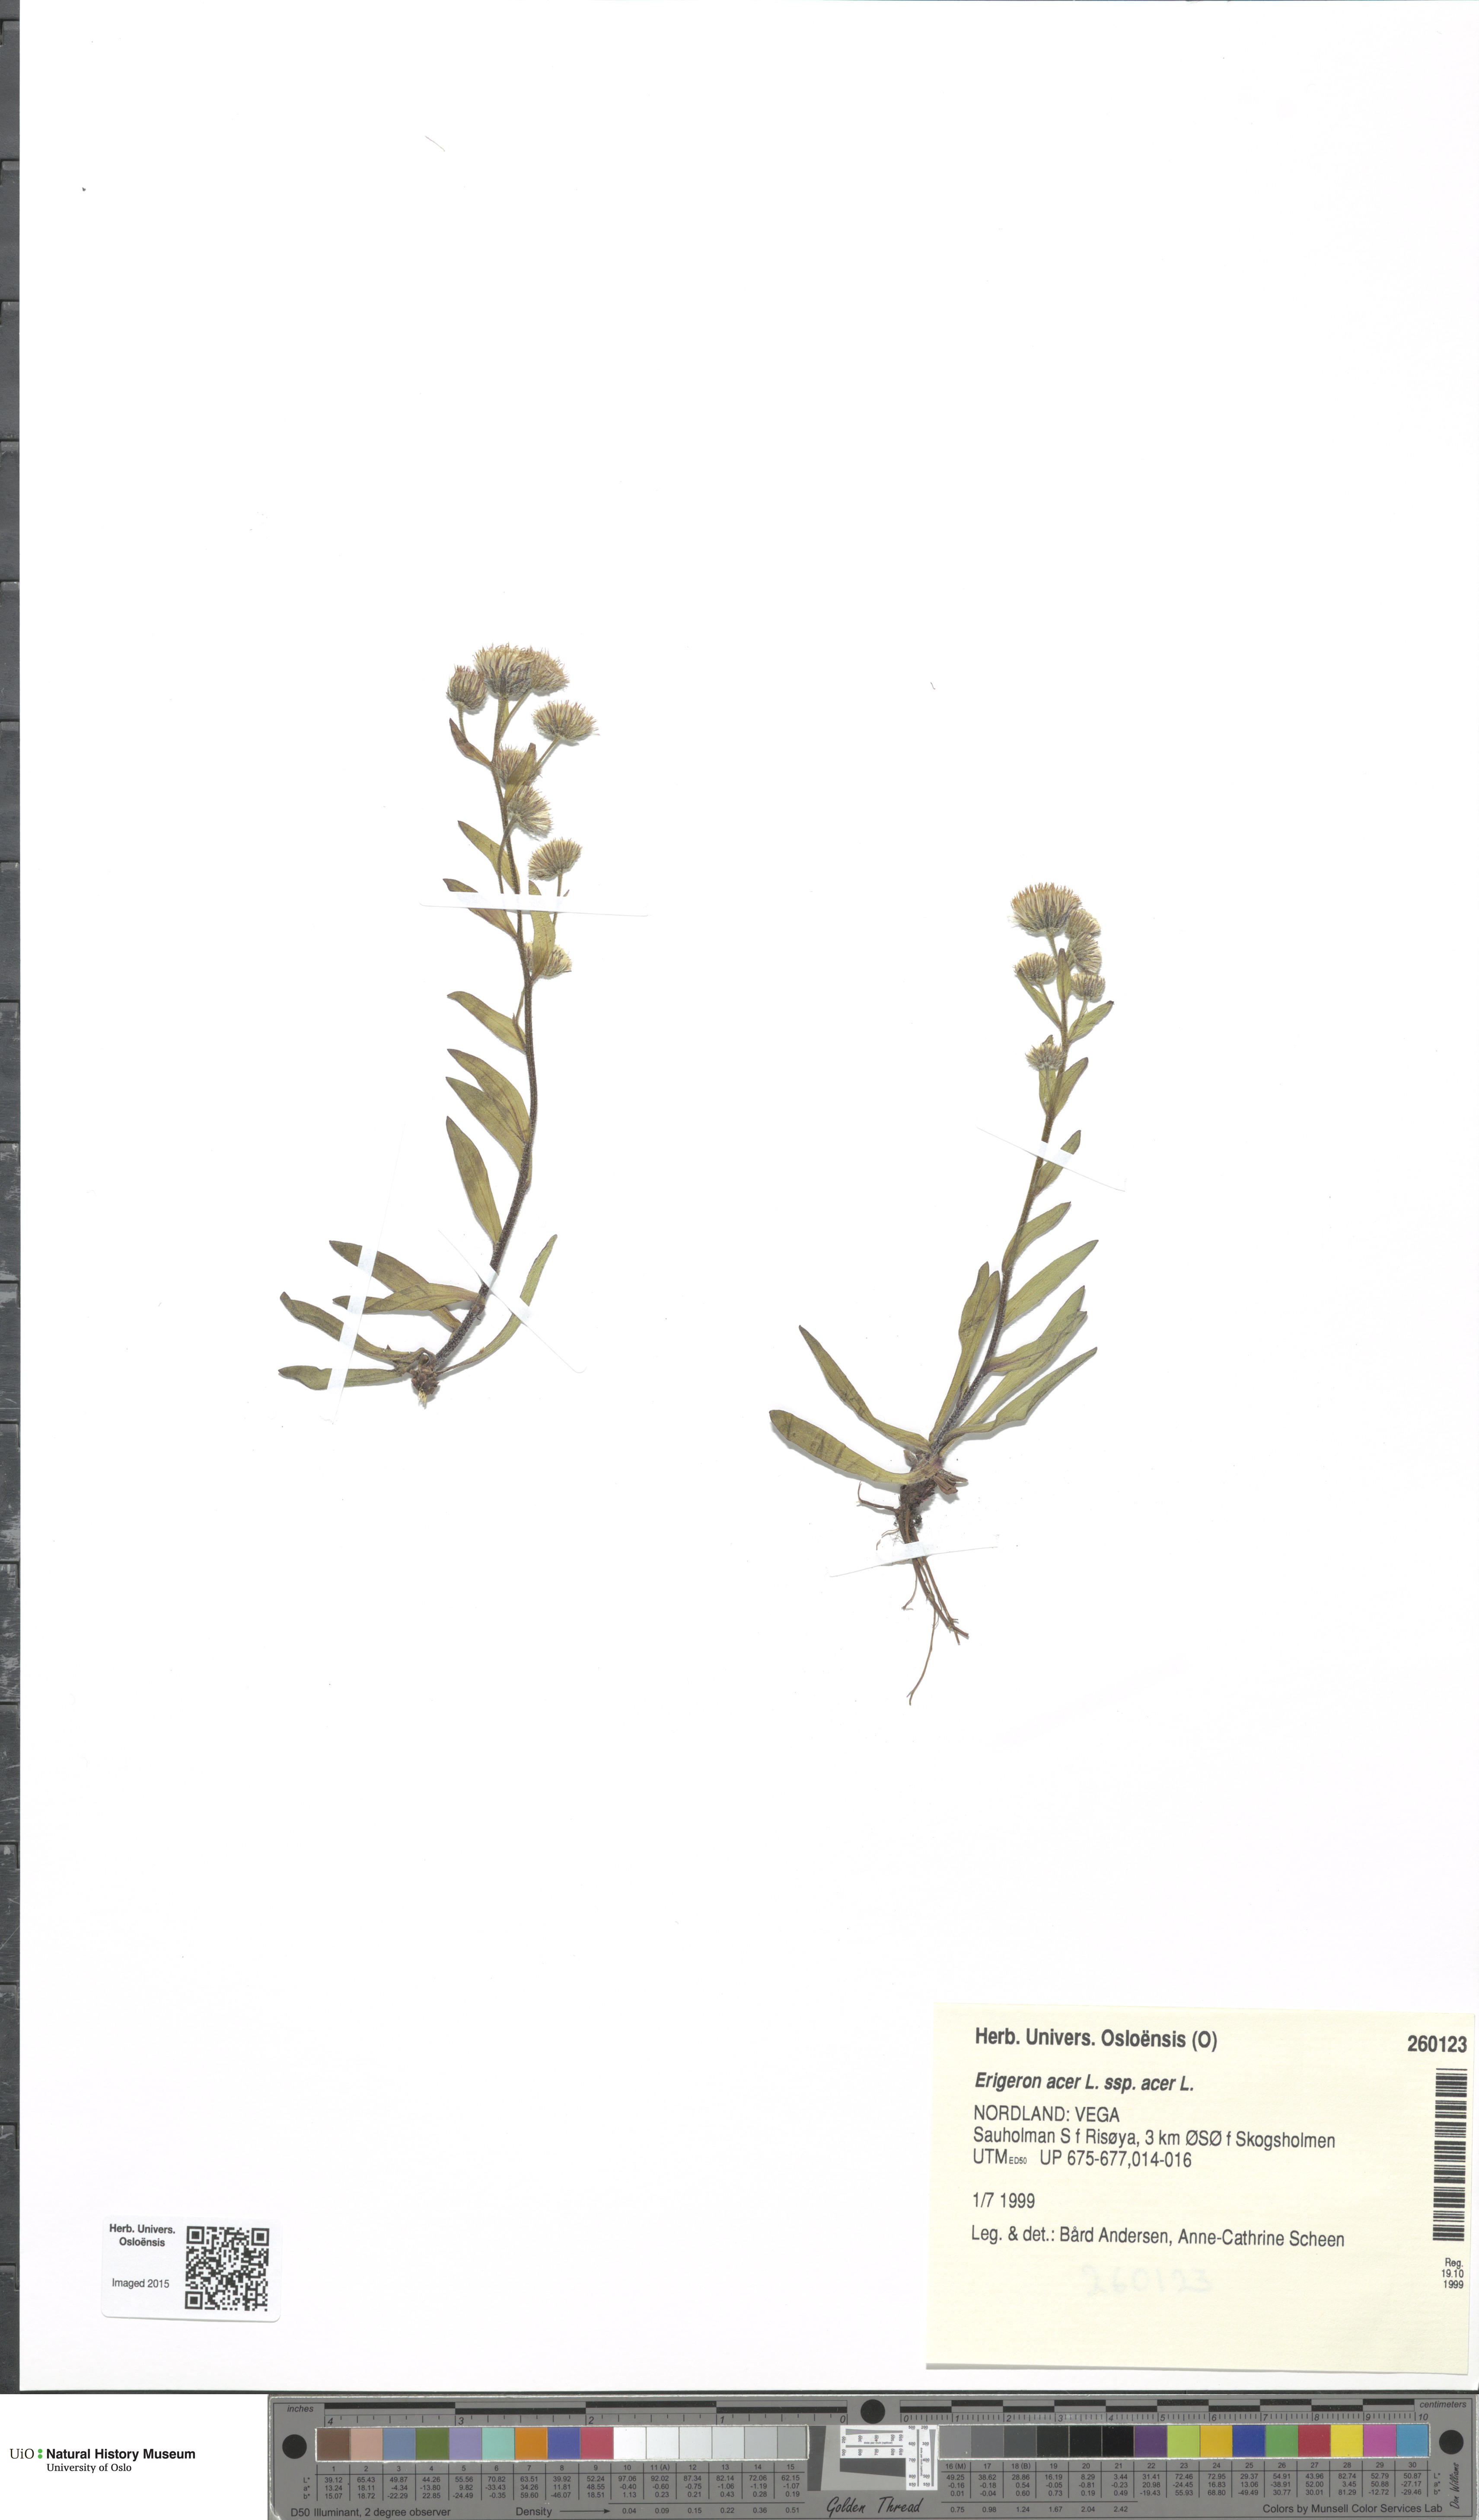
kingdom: Plantae
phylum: Tracheophyta
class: Magnoliopsida
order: Asterales
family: Asteraceae
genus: Erigeron
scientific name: Erigeron acris
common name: Blue fleabane
